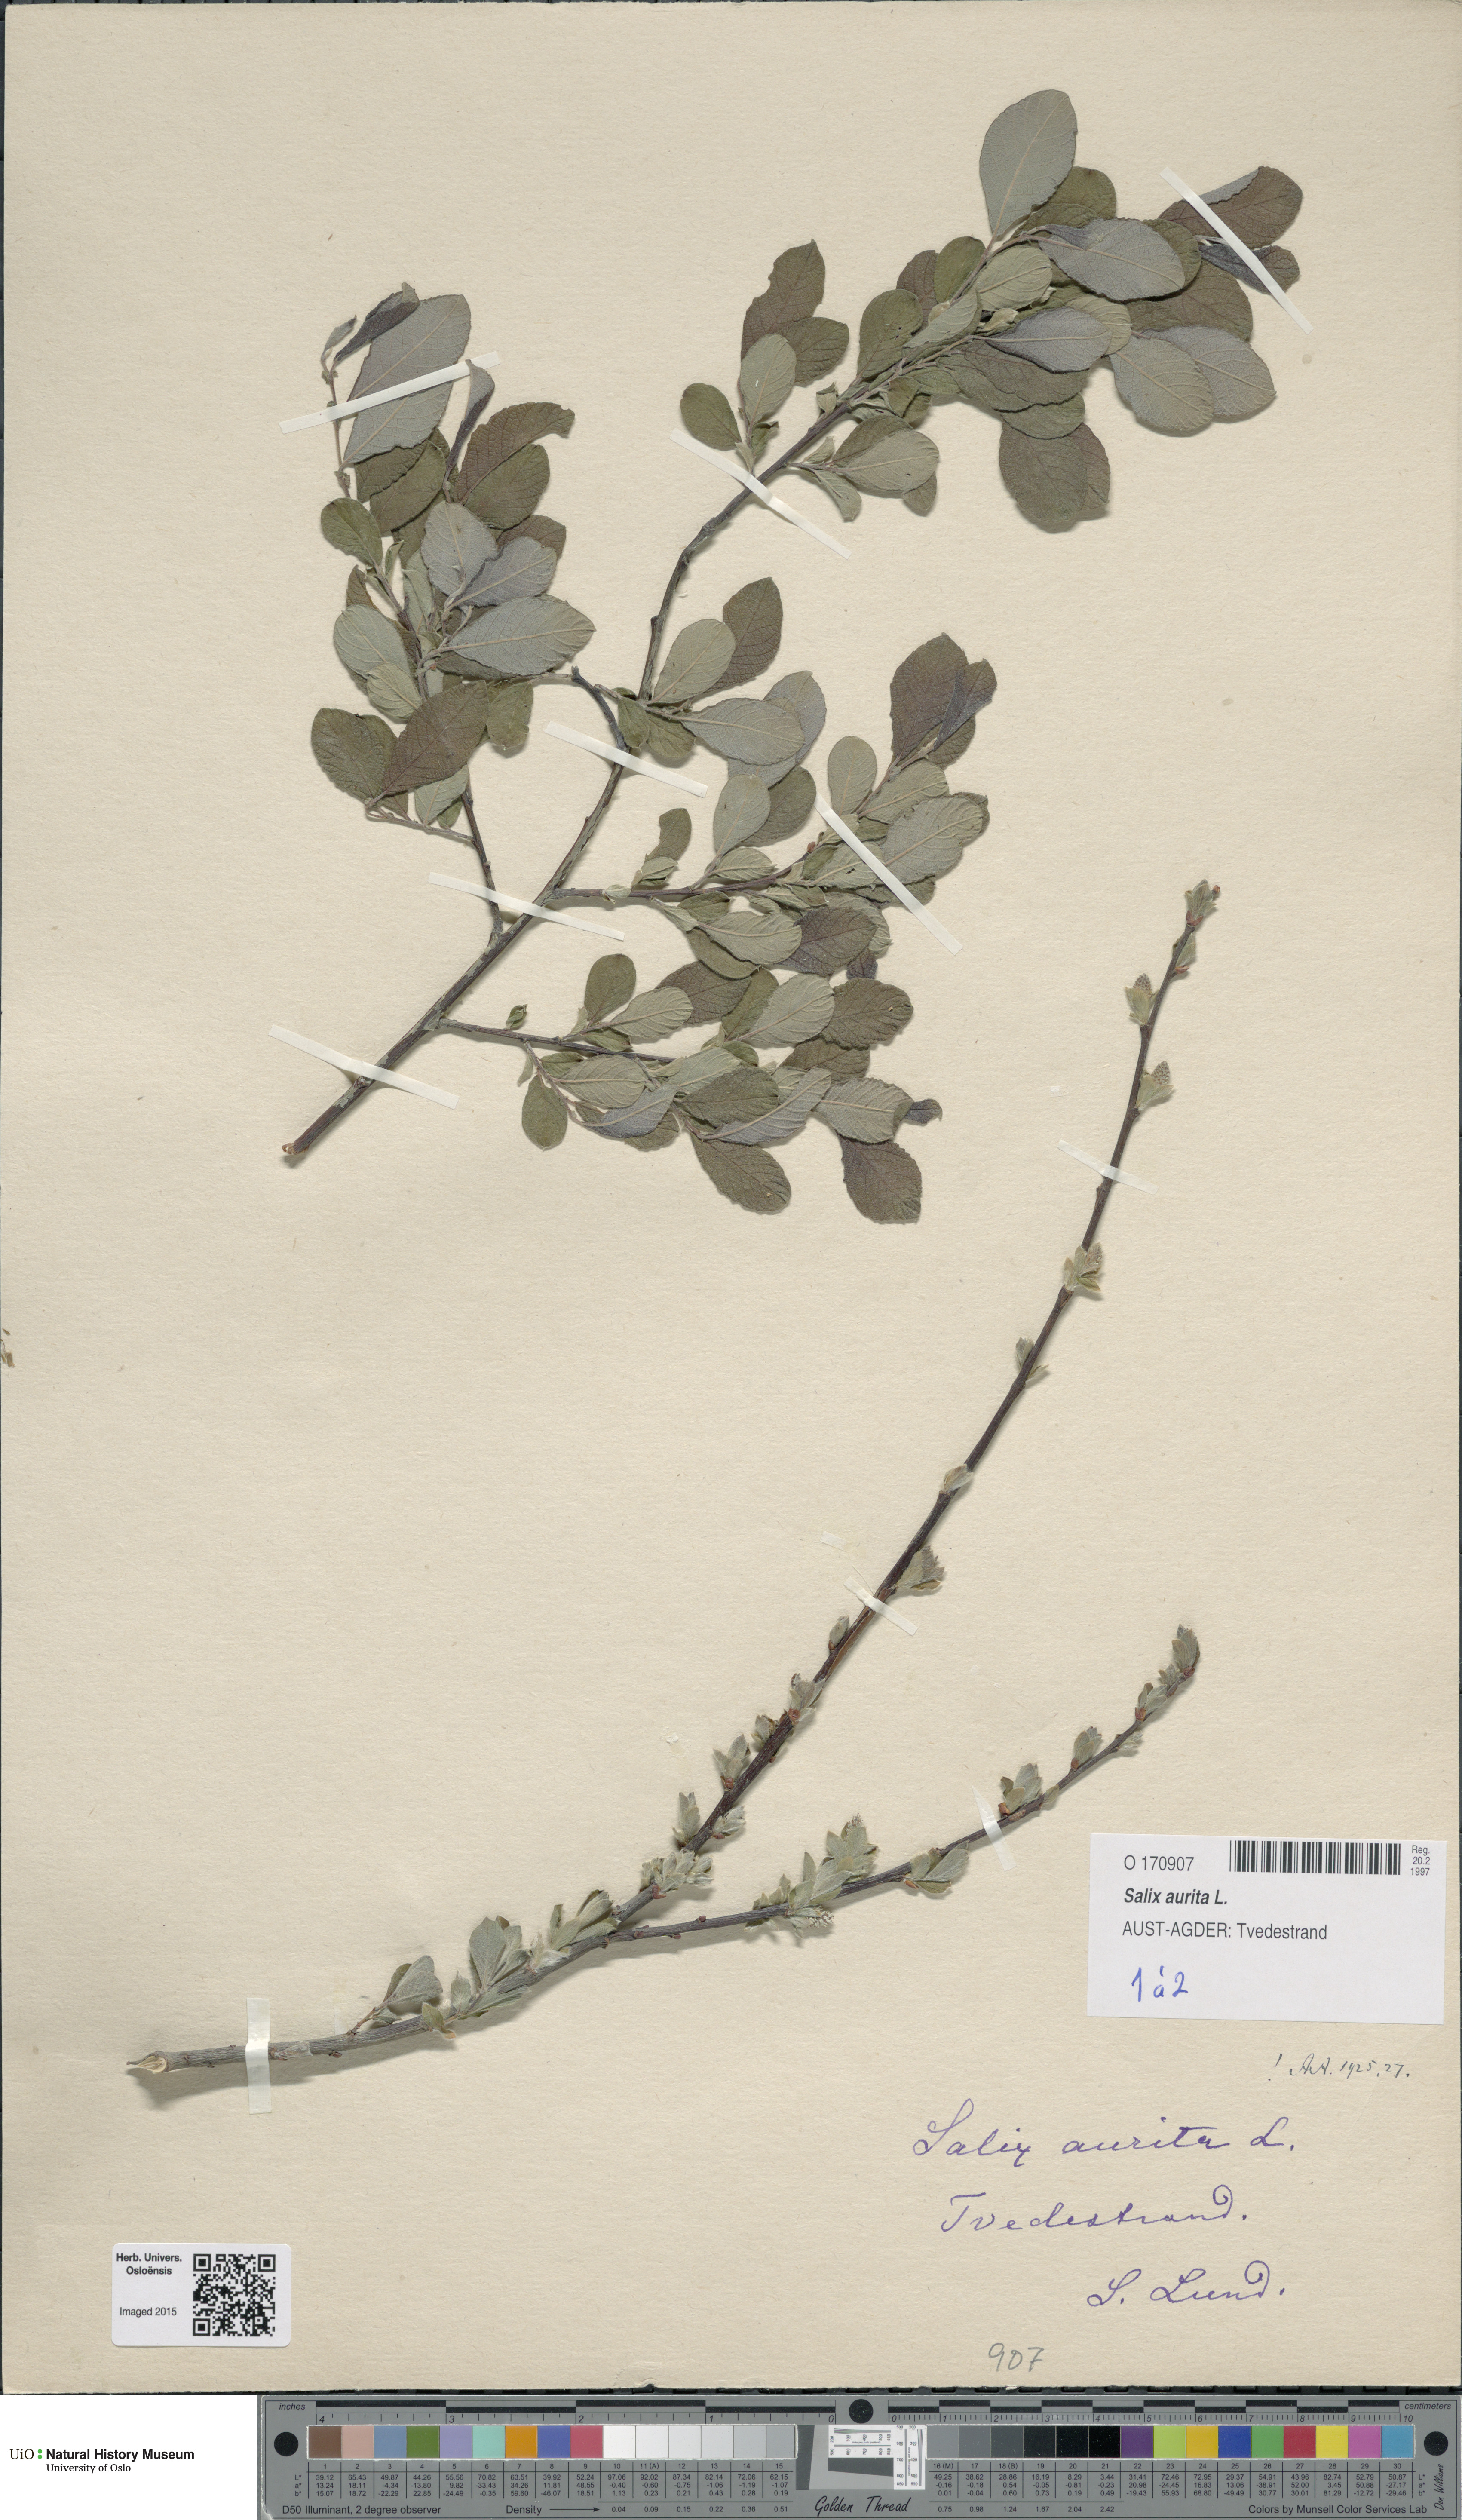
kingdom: Plantae
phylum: Tracheophyta
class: Magnoliopsida
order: Malpighiales
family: Salicaceae
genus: Salix
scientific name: Salix aurita
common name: Eared willow
